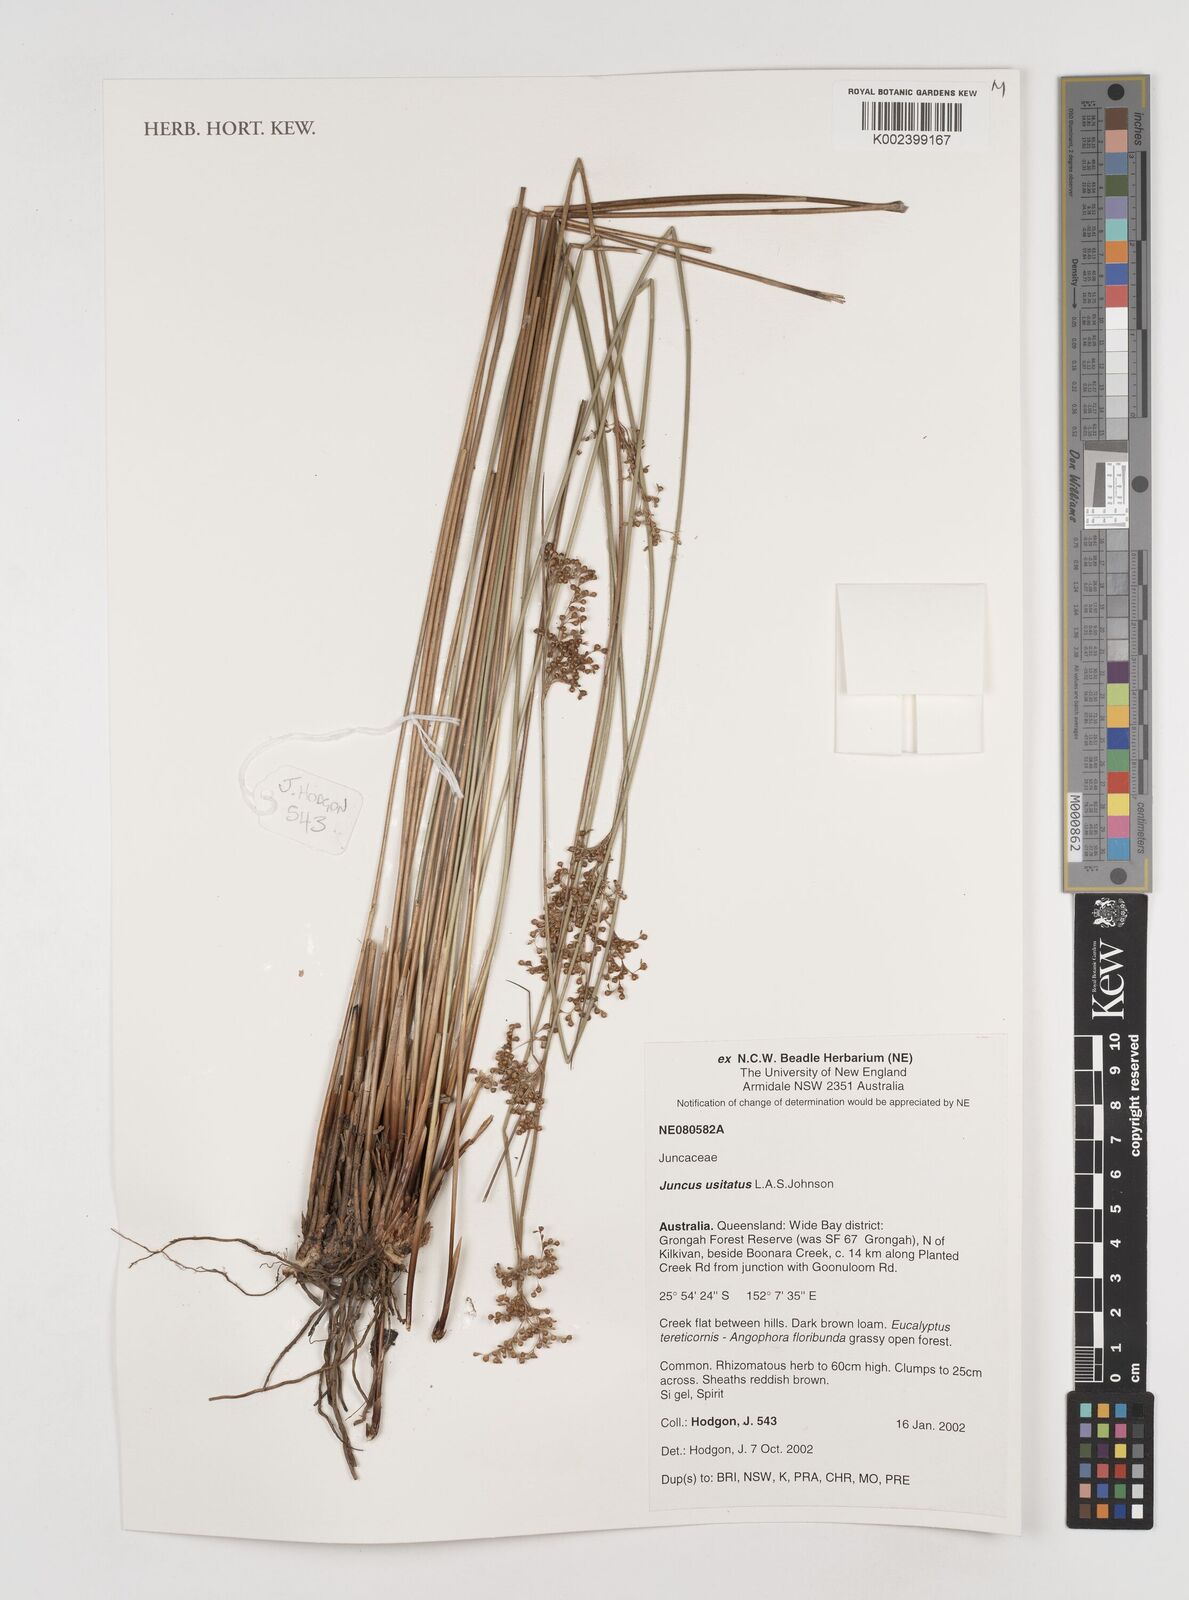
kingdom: Plantae
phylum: Tracheophyta
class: Liliopsida
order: Poales
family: Juncaceae
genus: Juncus
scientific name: Juncus usitatus
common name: Rush
